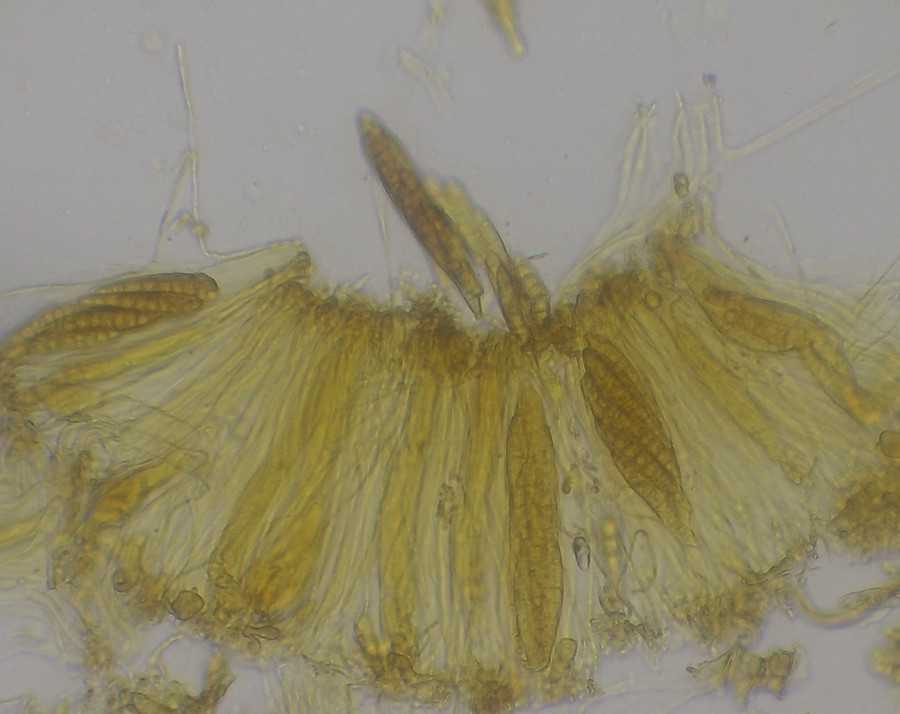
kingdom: Fungi
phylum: Ascomycota
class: Lecanoromycetes
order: Ostropales
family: Stictidaceae
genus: Karstenia
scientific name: Karstenia rhopaloides
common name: grårosa barkhul
